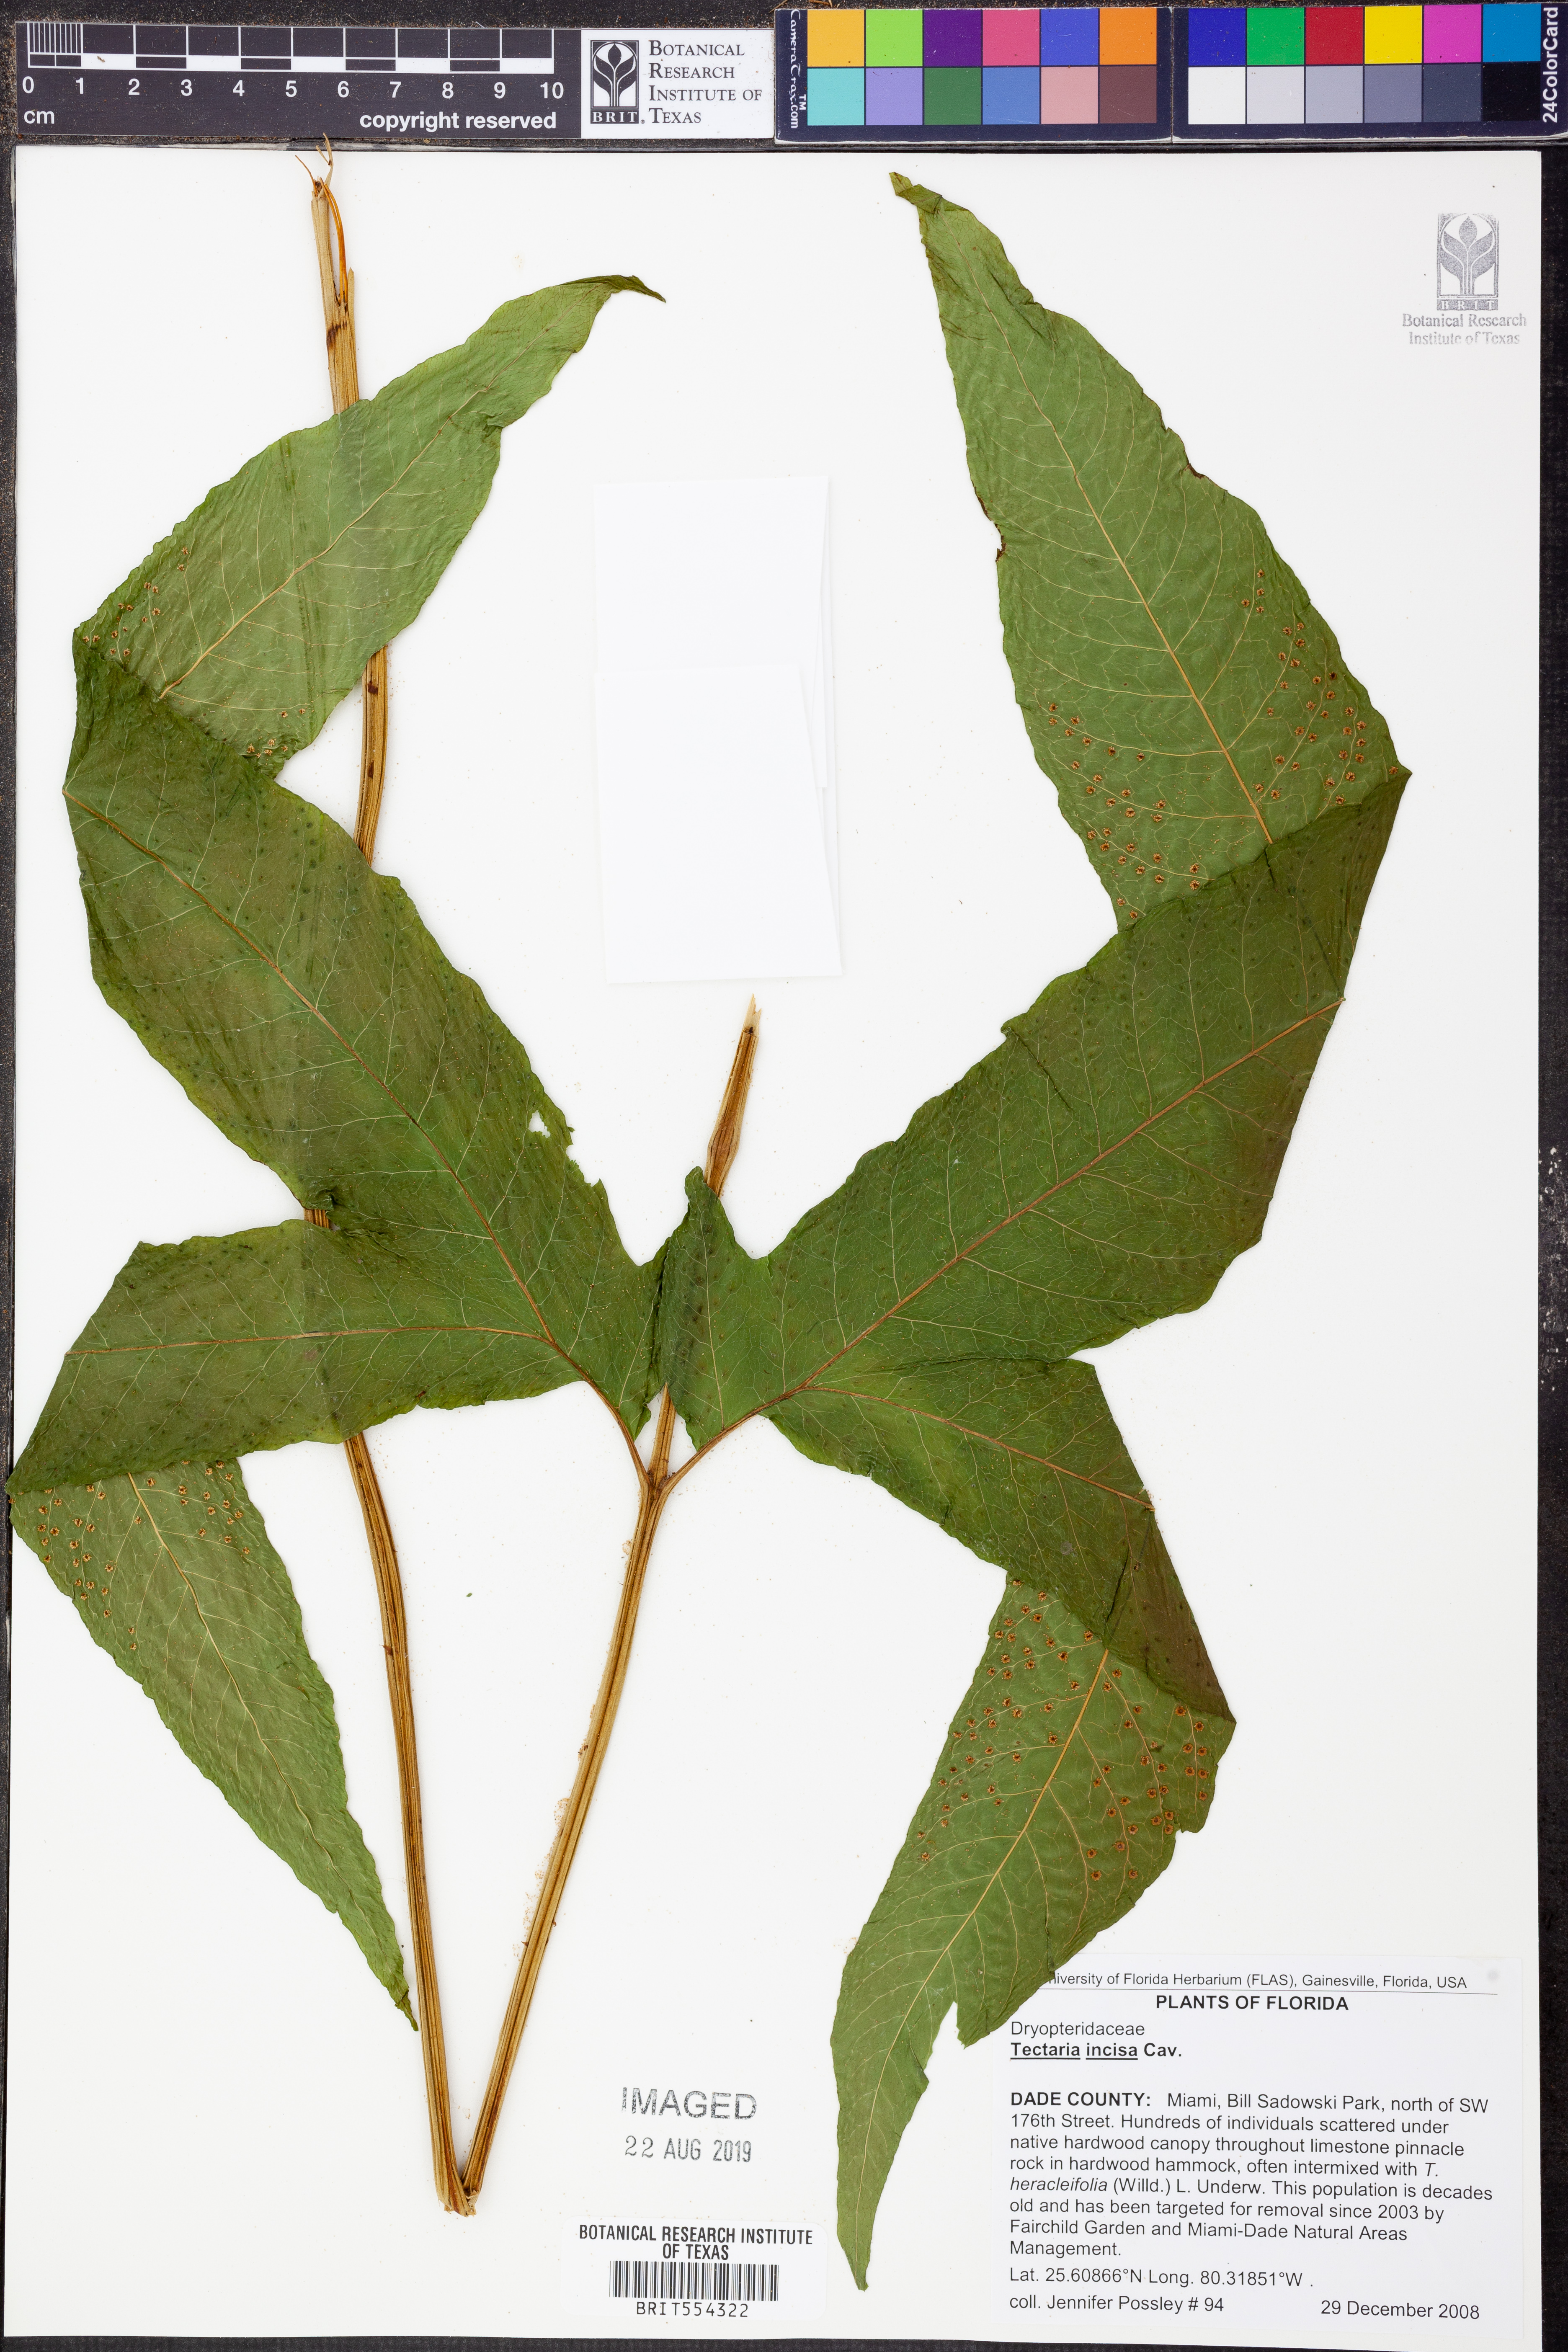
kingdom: Plantae
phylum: Tracheophyta
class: Polypodiopsida
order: Polypodiales
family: Tectariaceae
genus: Tectaria
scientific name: Tectaria incisa
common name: Incised halberd fern
